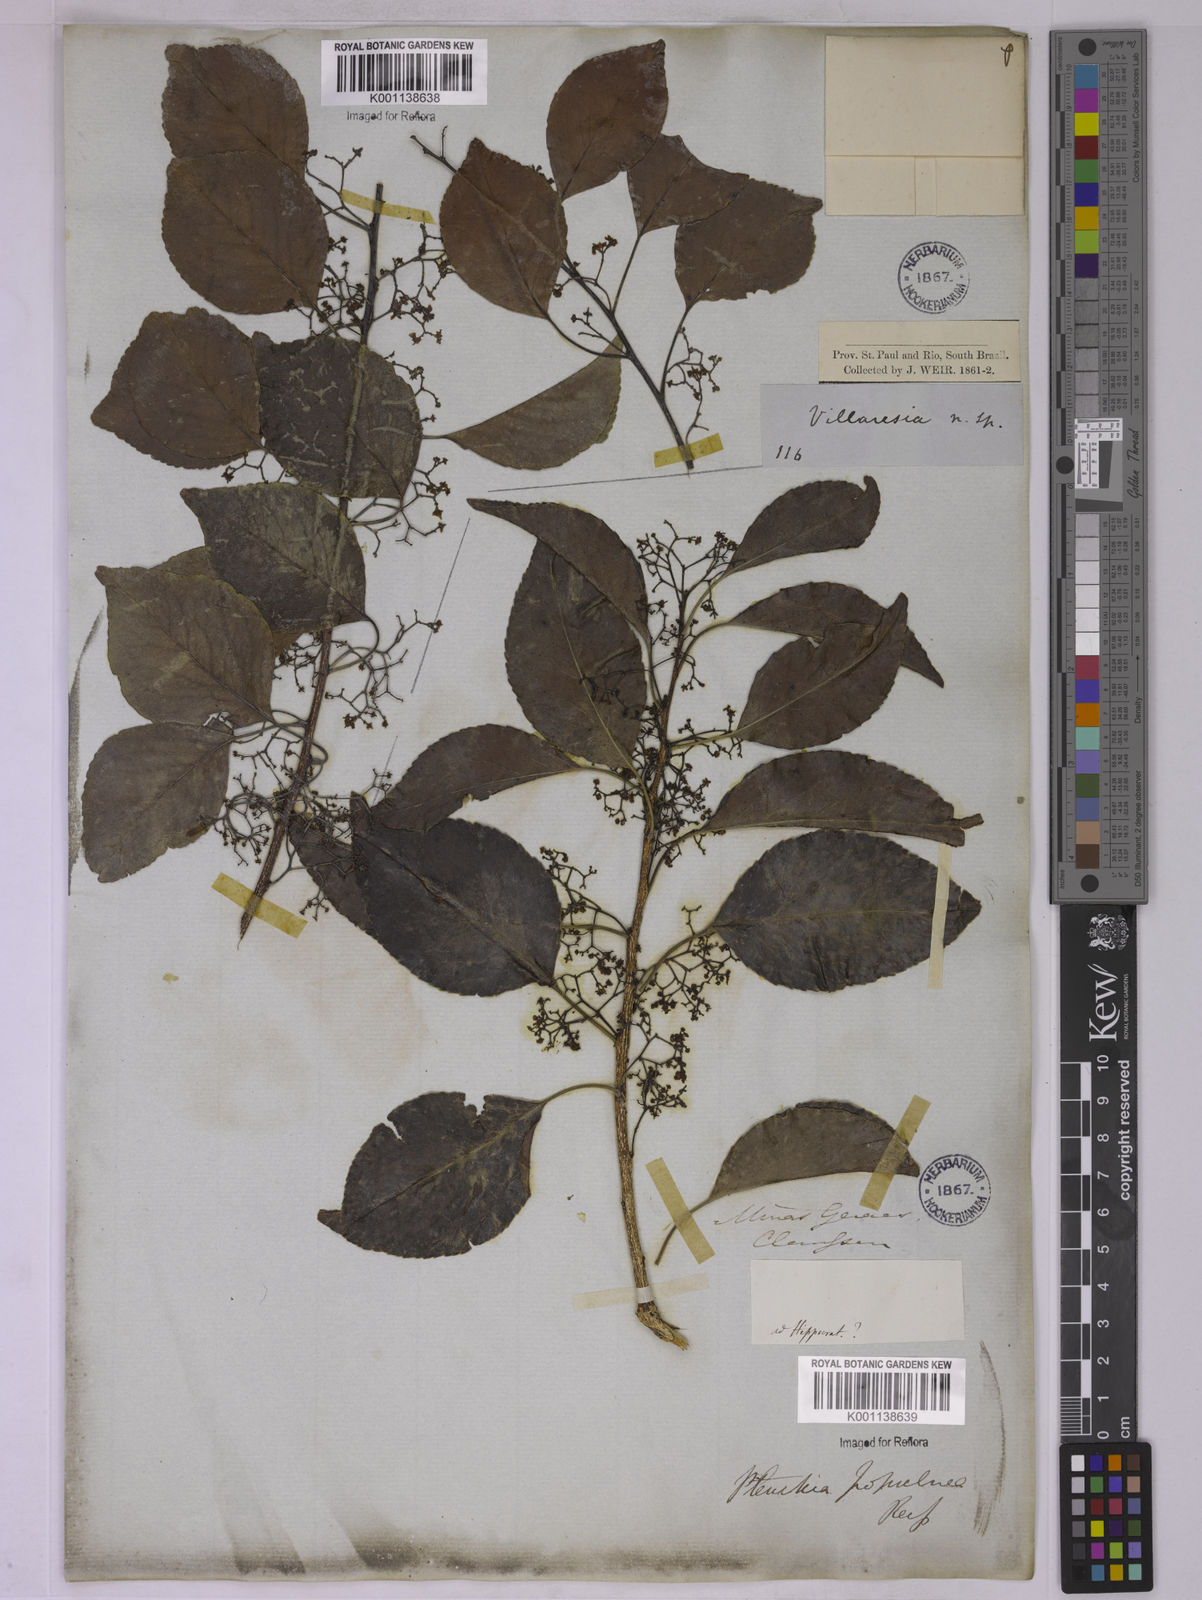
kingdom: Plantae
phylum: Tracheophyta
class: Magnoliopsida
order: Celastrales
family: Celastraceae
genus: Plenckia
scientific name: Plenckia populnea
